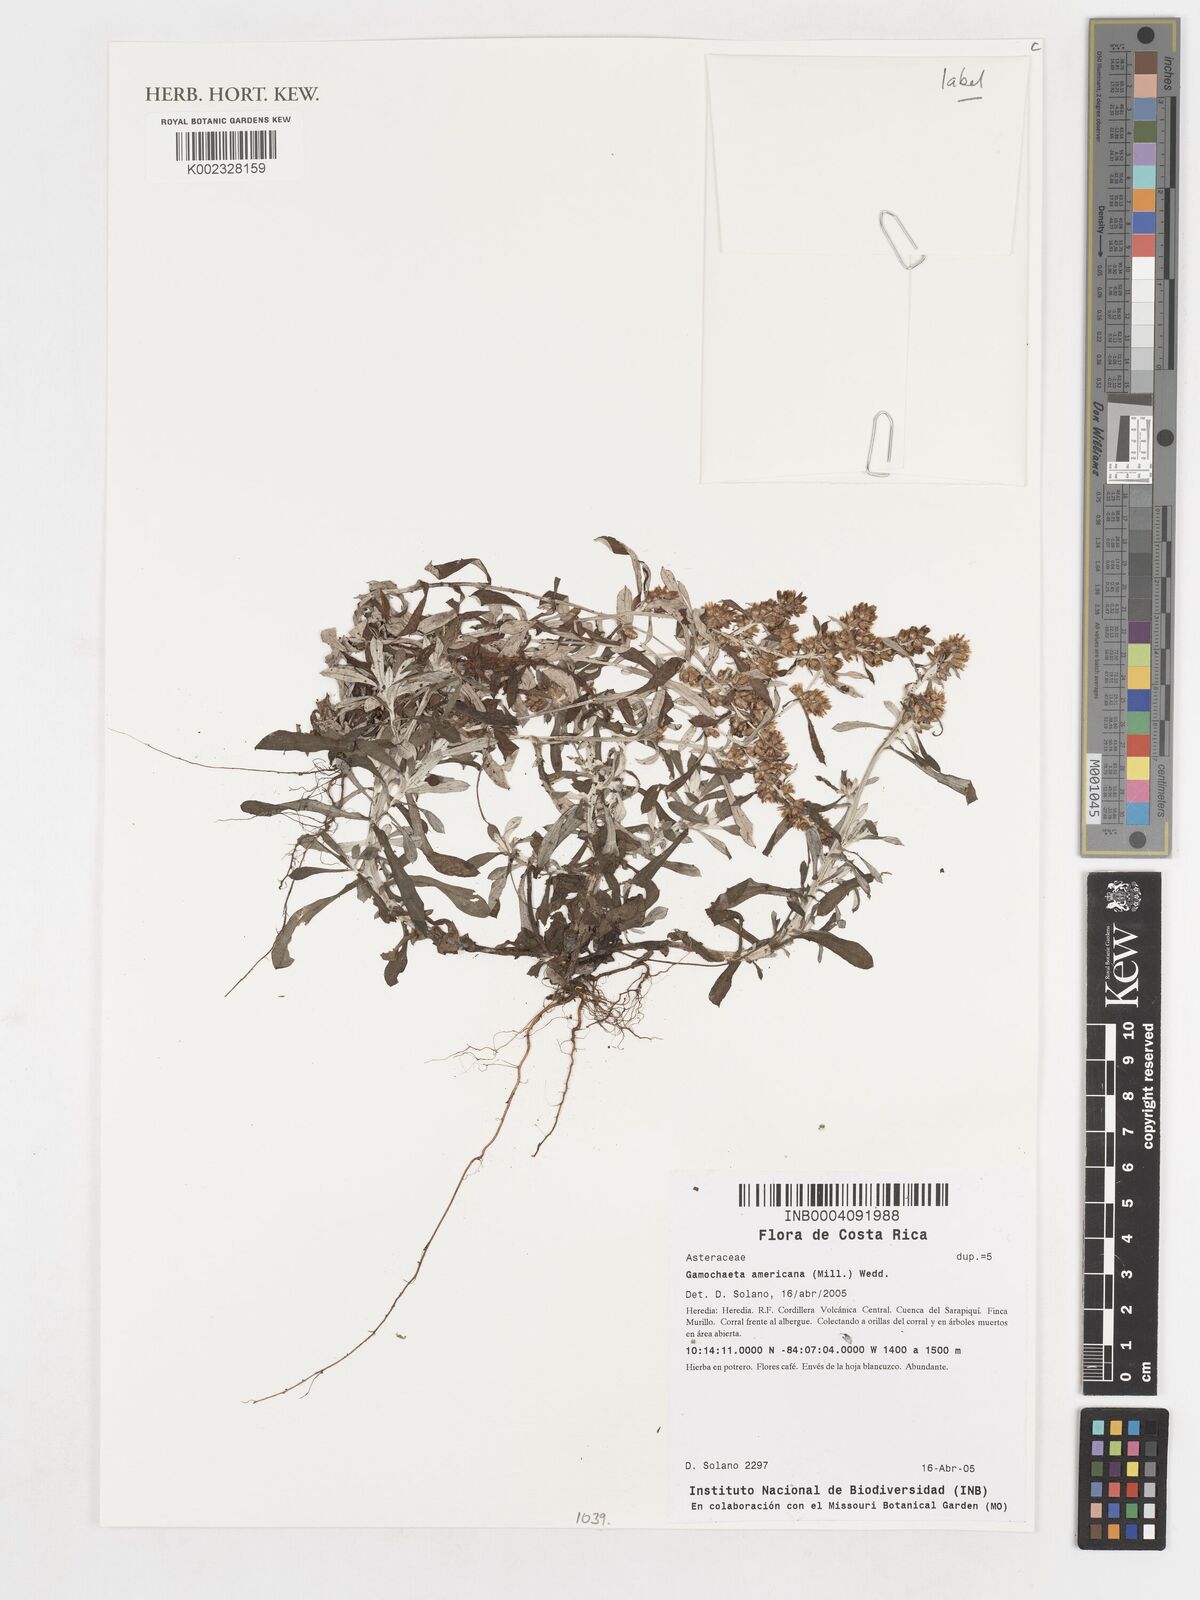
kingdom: Plantae
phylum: Tracheophyta
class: Magnoliopsida
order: Asterales
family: Asteraceae
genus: Gamochaeta
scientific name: Gamochaeta americana
